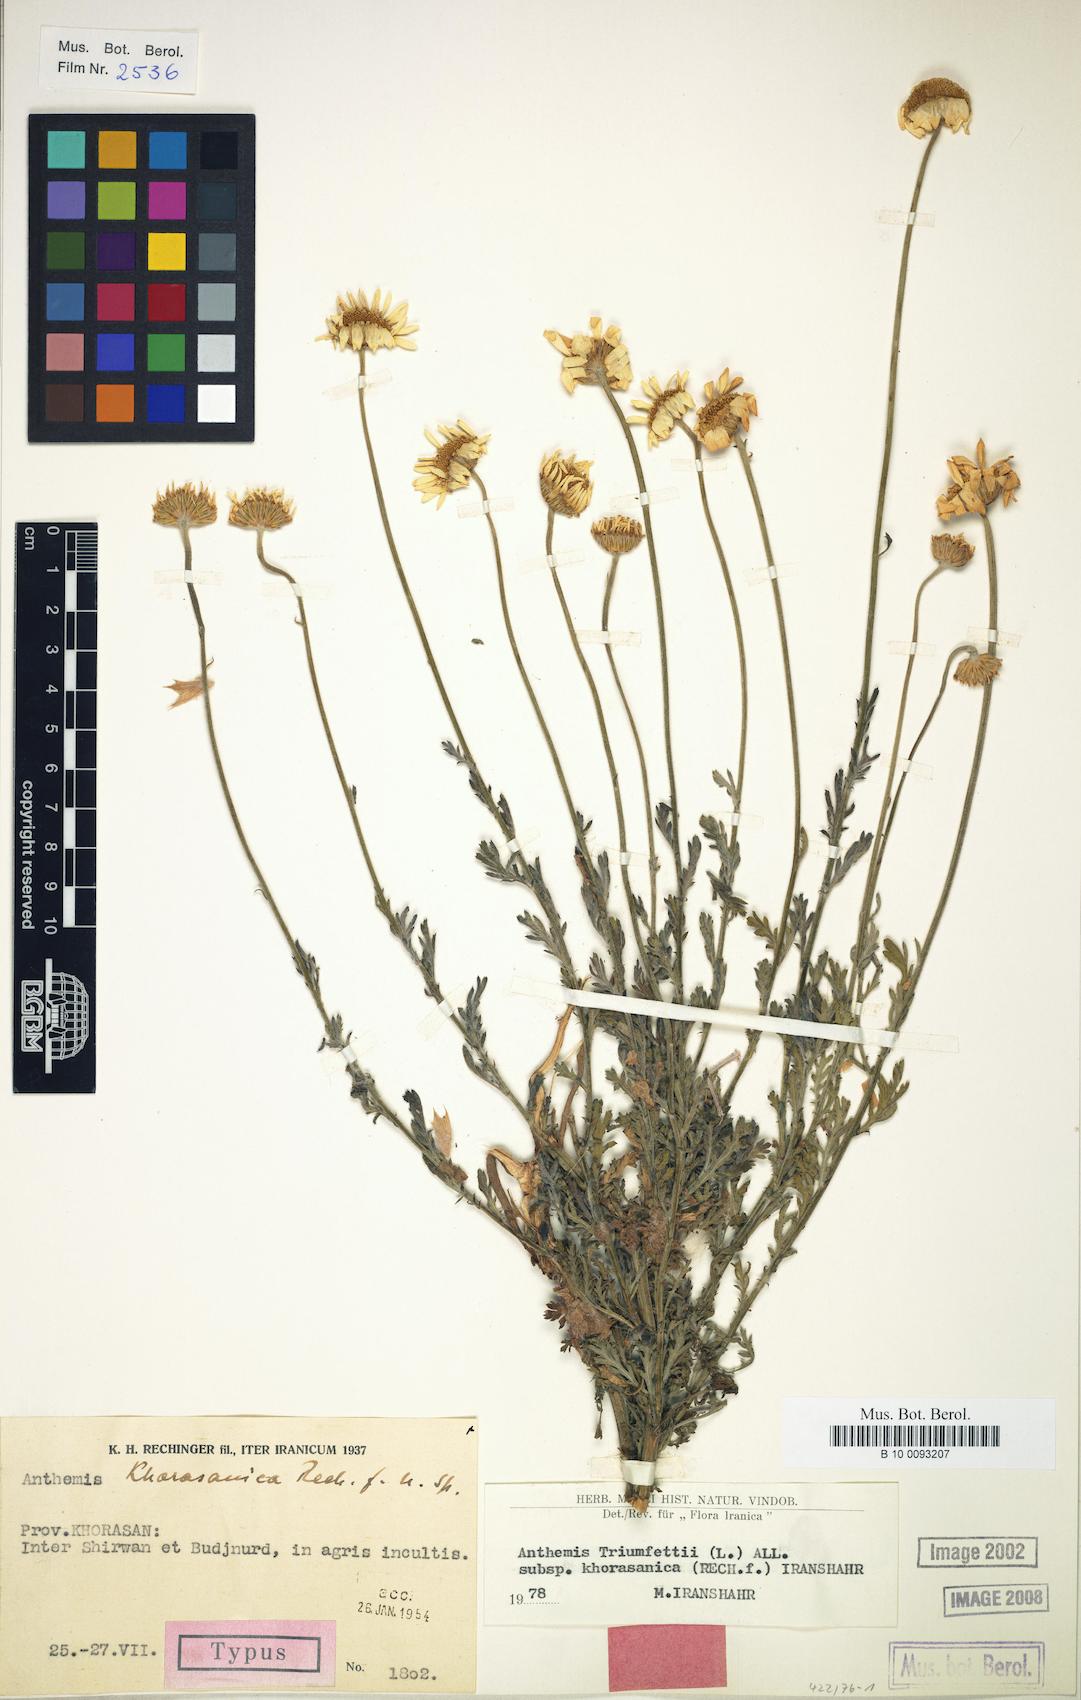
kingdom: Plantae
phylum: Tracheophyta
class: Magnoliopsida
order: Asterales
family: Asteraceae
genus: Cota
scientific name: Cota triumfetti
